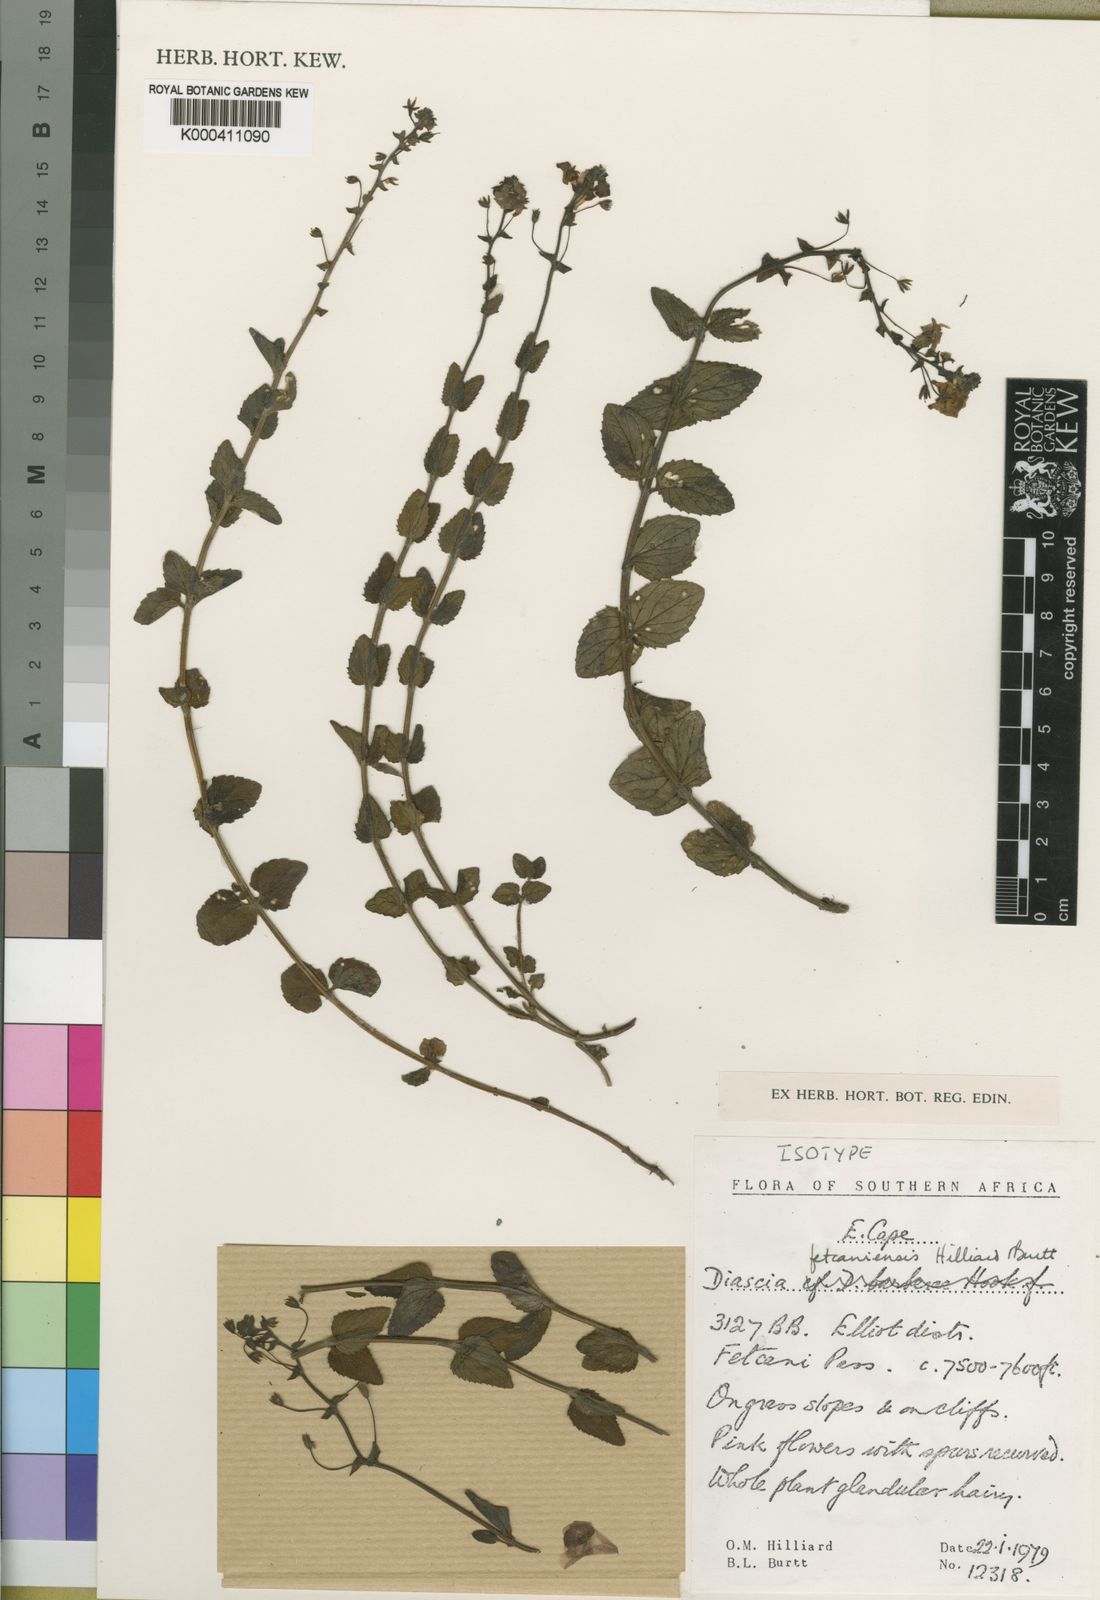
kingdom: Plantae
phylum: Tracheophyta
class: Magnoliopsida
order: Lamiales
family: Scrophulariaceae
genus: Diascia
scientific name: Diascia fetcaniensis
